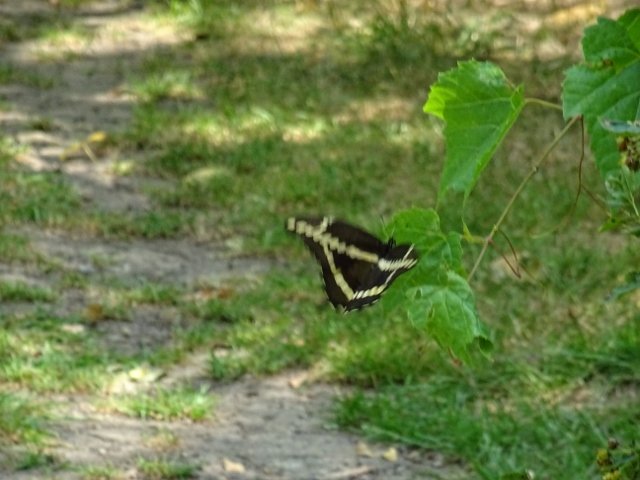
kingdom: Animalia
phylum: Arthropoda
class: Insecta
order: Lepidoptera
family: Papilionidae
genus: Papilio
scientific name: Papilio cresphontes
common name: Eastern Giant Swallowtail
